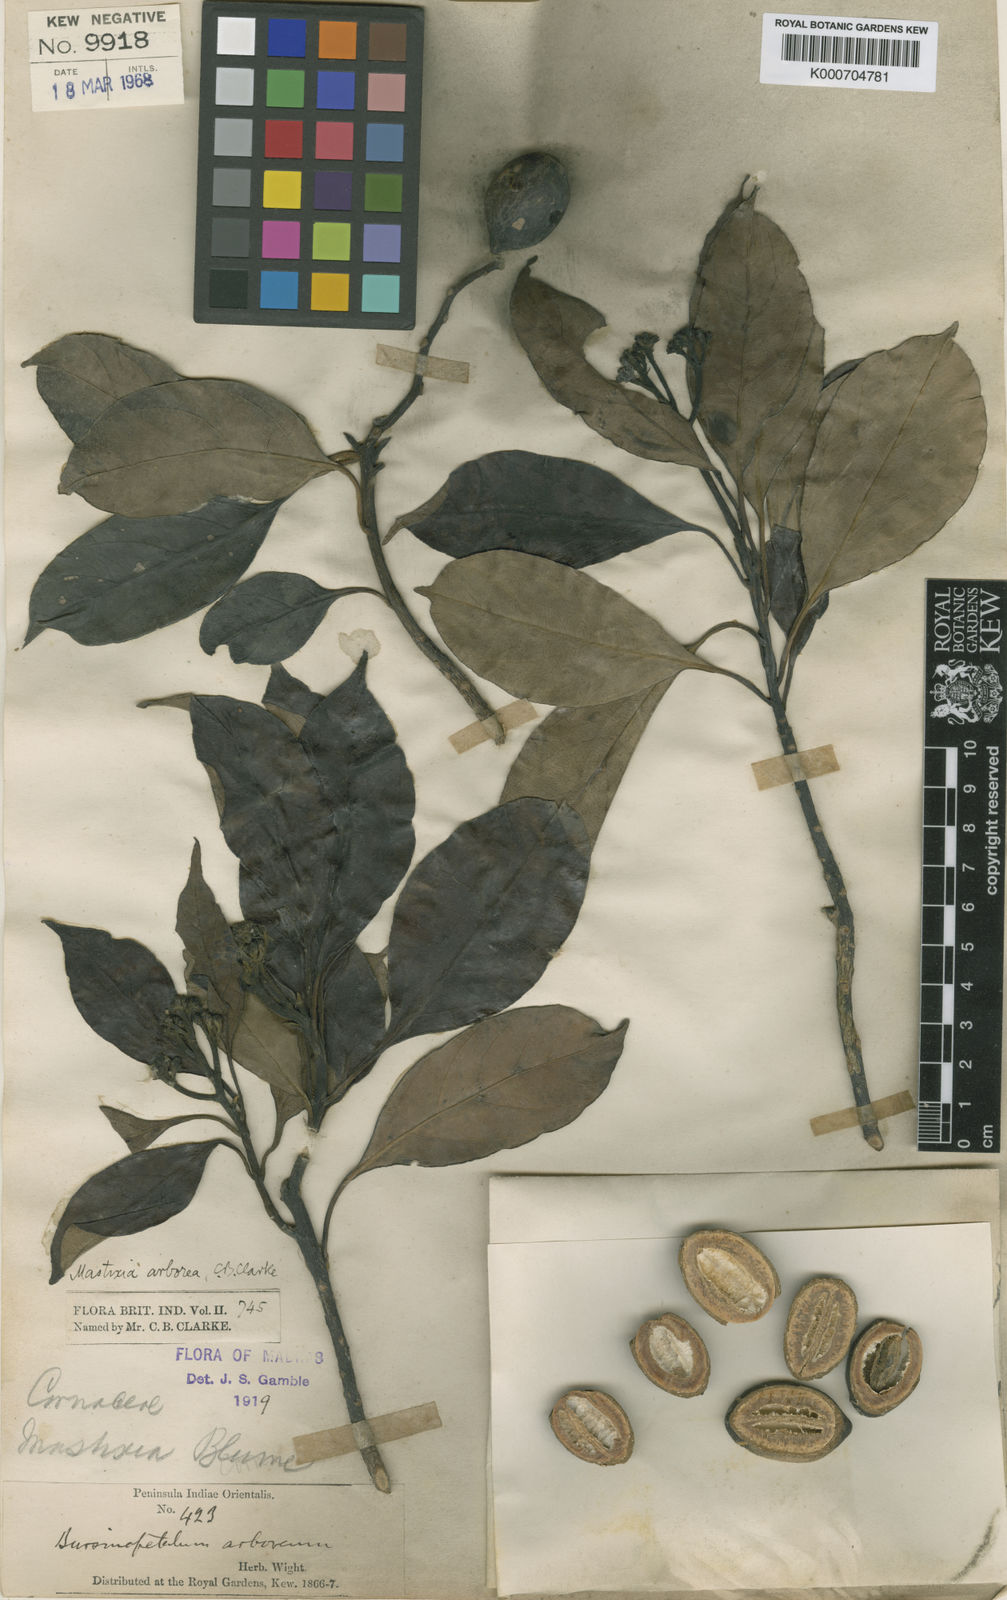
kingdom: Plantae
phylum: Tracheophyta
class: Magnoliopsida
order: Cornales
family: Nyssaceae
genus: Mastixia
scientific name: Mastixia arborea
